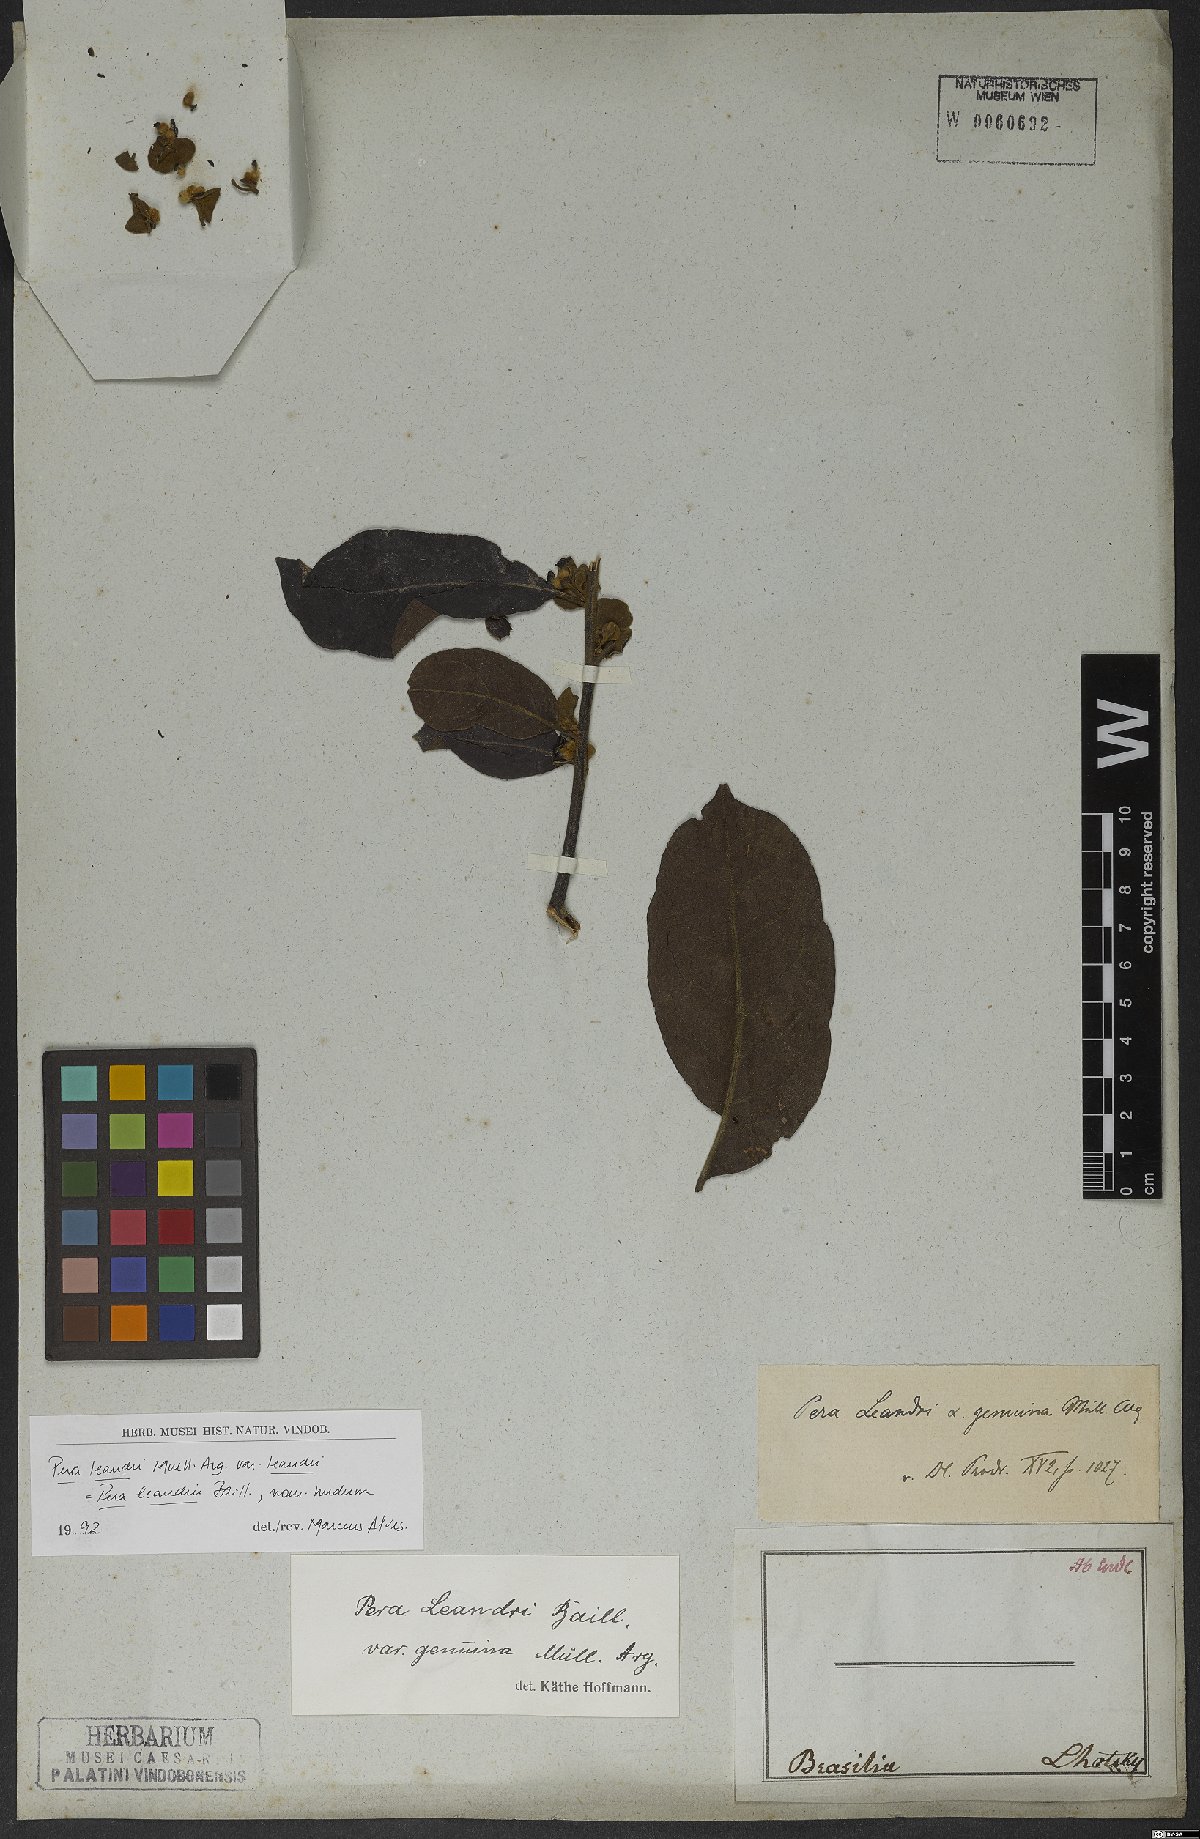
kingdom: Plantae
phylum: Tracheophyta
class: Magnoliopsida
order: Malpighiales
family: Peraceae
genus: Pera
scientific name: Pera heteranthera
